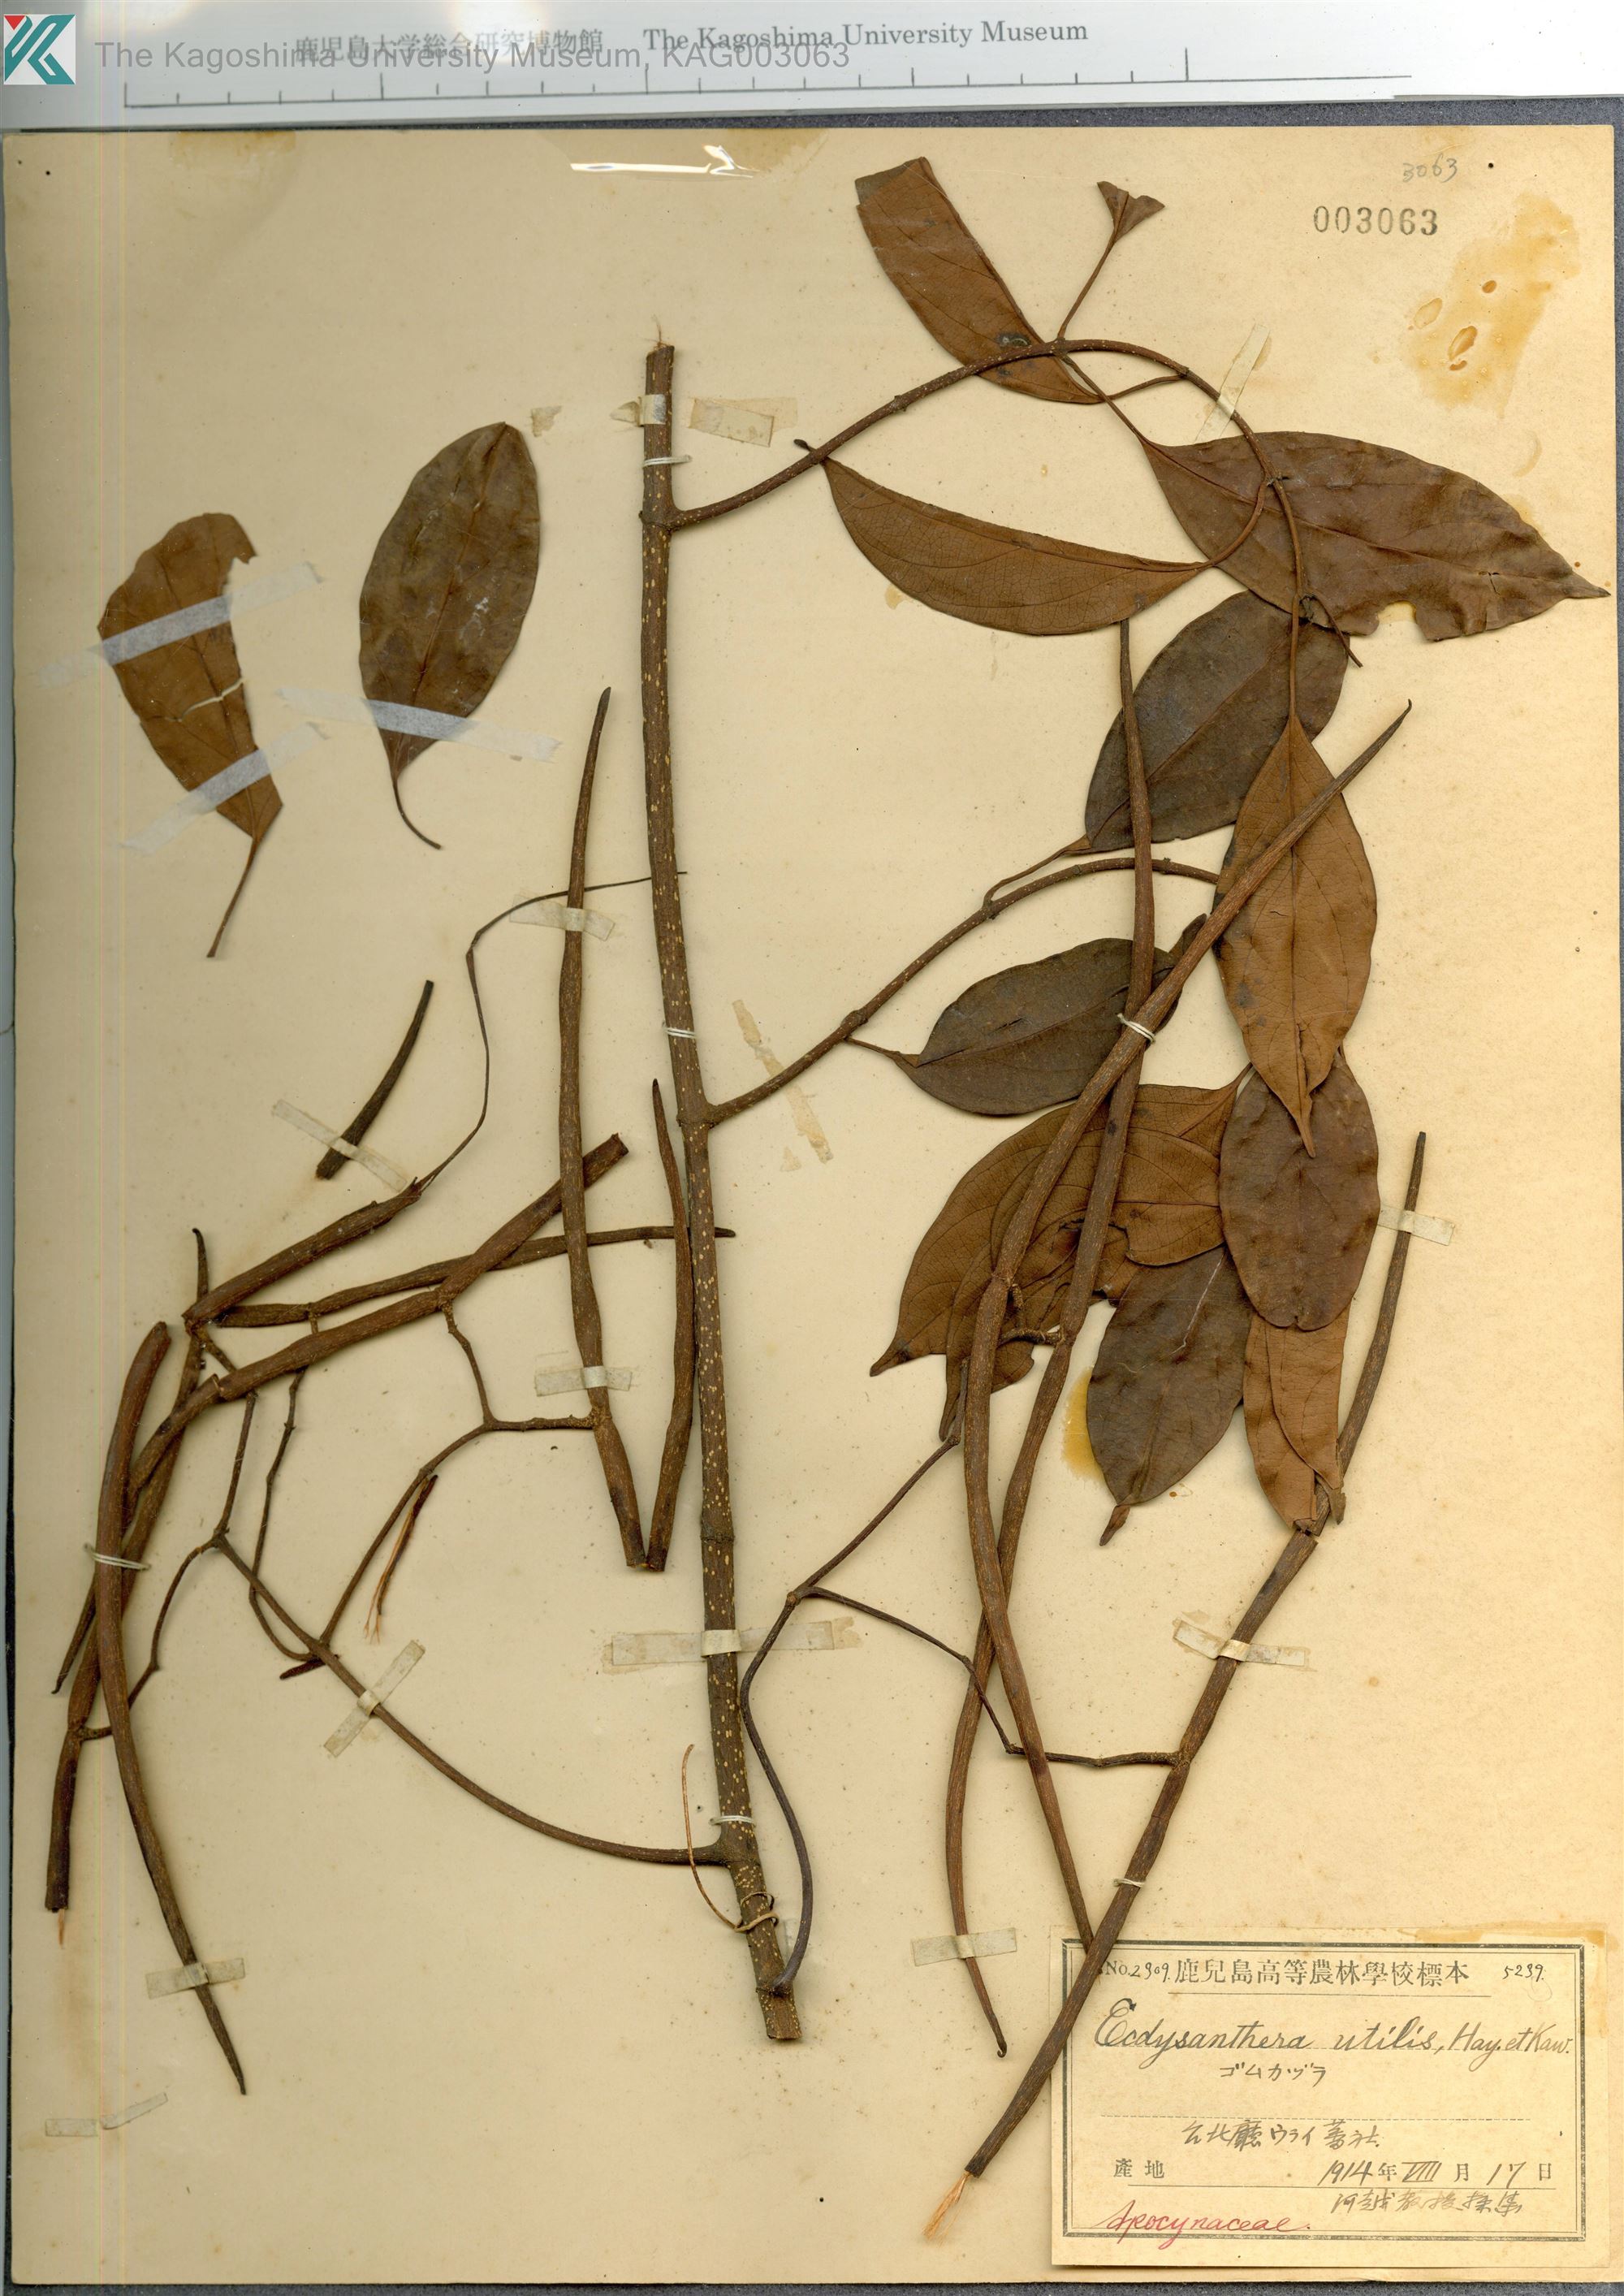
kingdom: Plantae
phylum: Tracheophyta
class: Magnoliopsida
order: Gentianales
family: Apocynaceae
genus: Urceola
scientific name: Urceola micrantha
